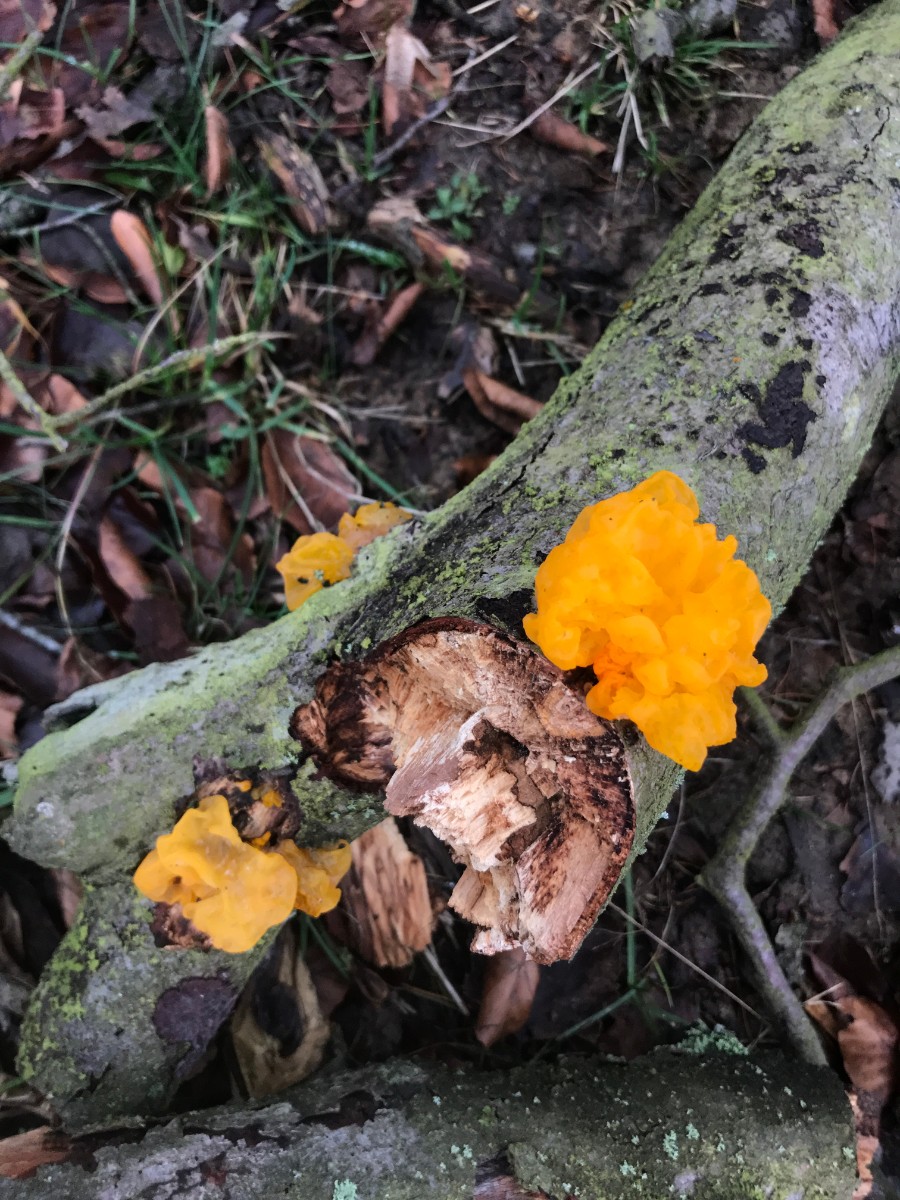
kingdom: Fungi
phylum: Basidiomycota
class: Tremellomycetes
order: Tremellales
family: Tremellaceae
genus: Tremella
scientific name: Tremella mesenterica
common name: gul bævresvamp
